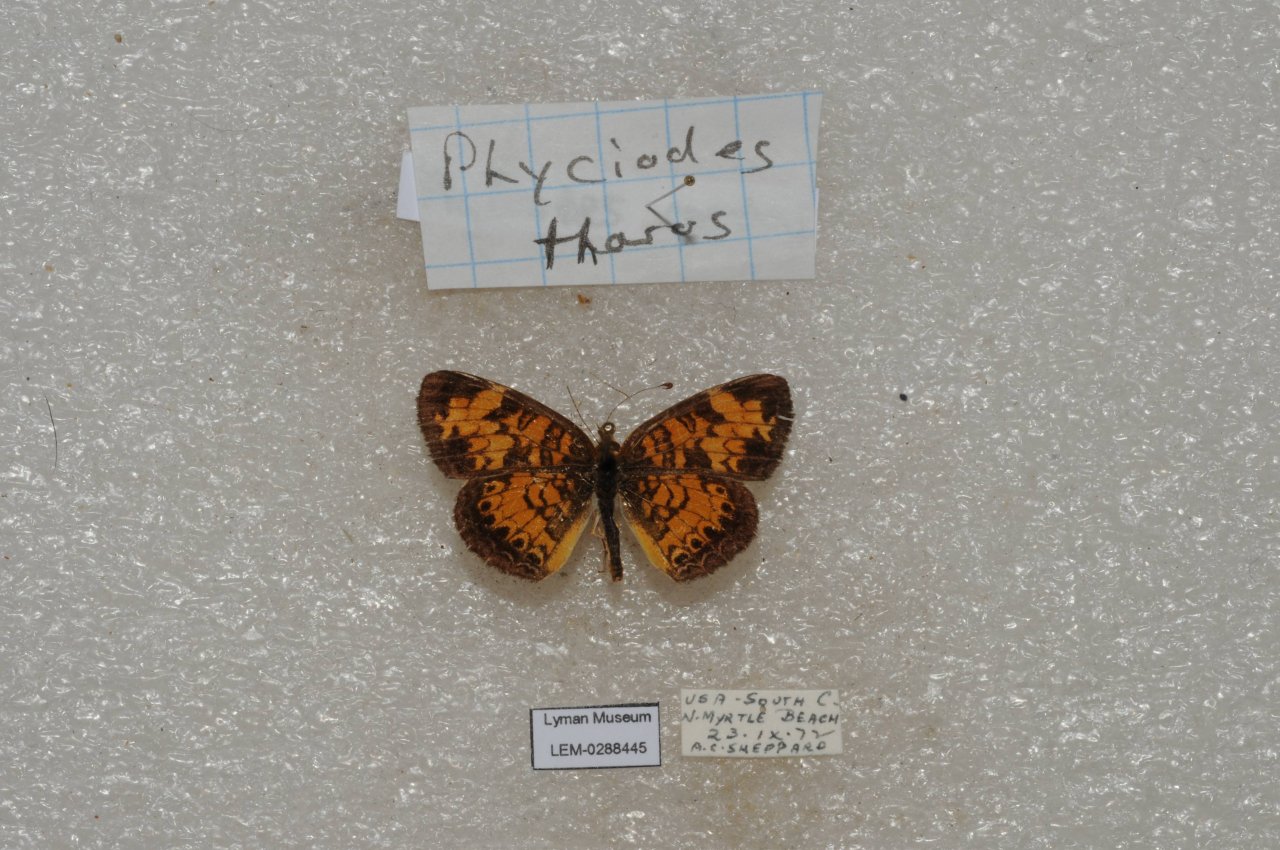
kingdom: Animalia
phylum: Arthropoda
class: Insecta
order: Lepidoptera
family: Nymphalidae
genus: Phyciodes
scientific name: Phyciodes tharos
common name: Pearl Crescent
